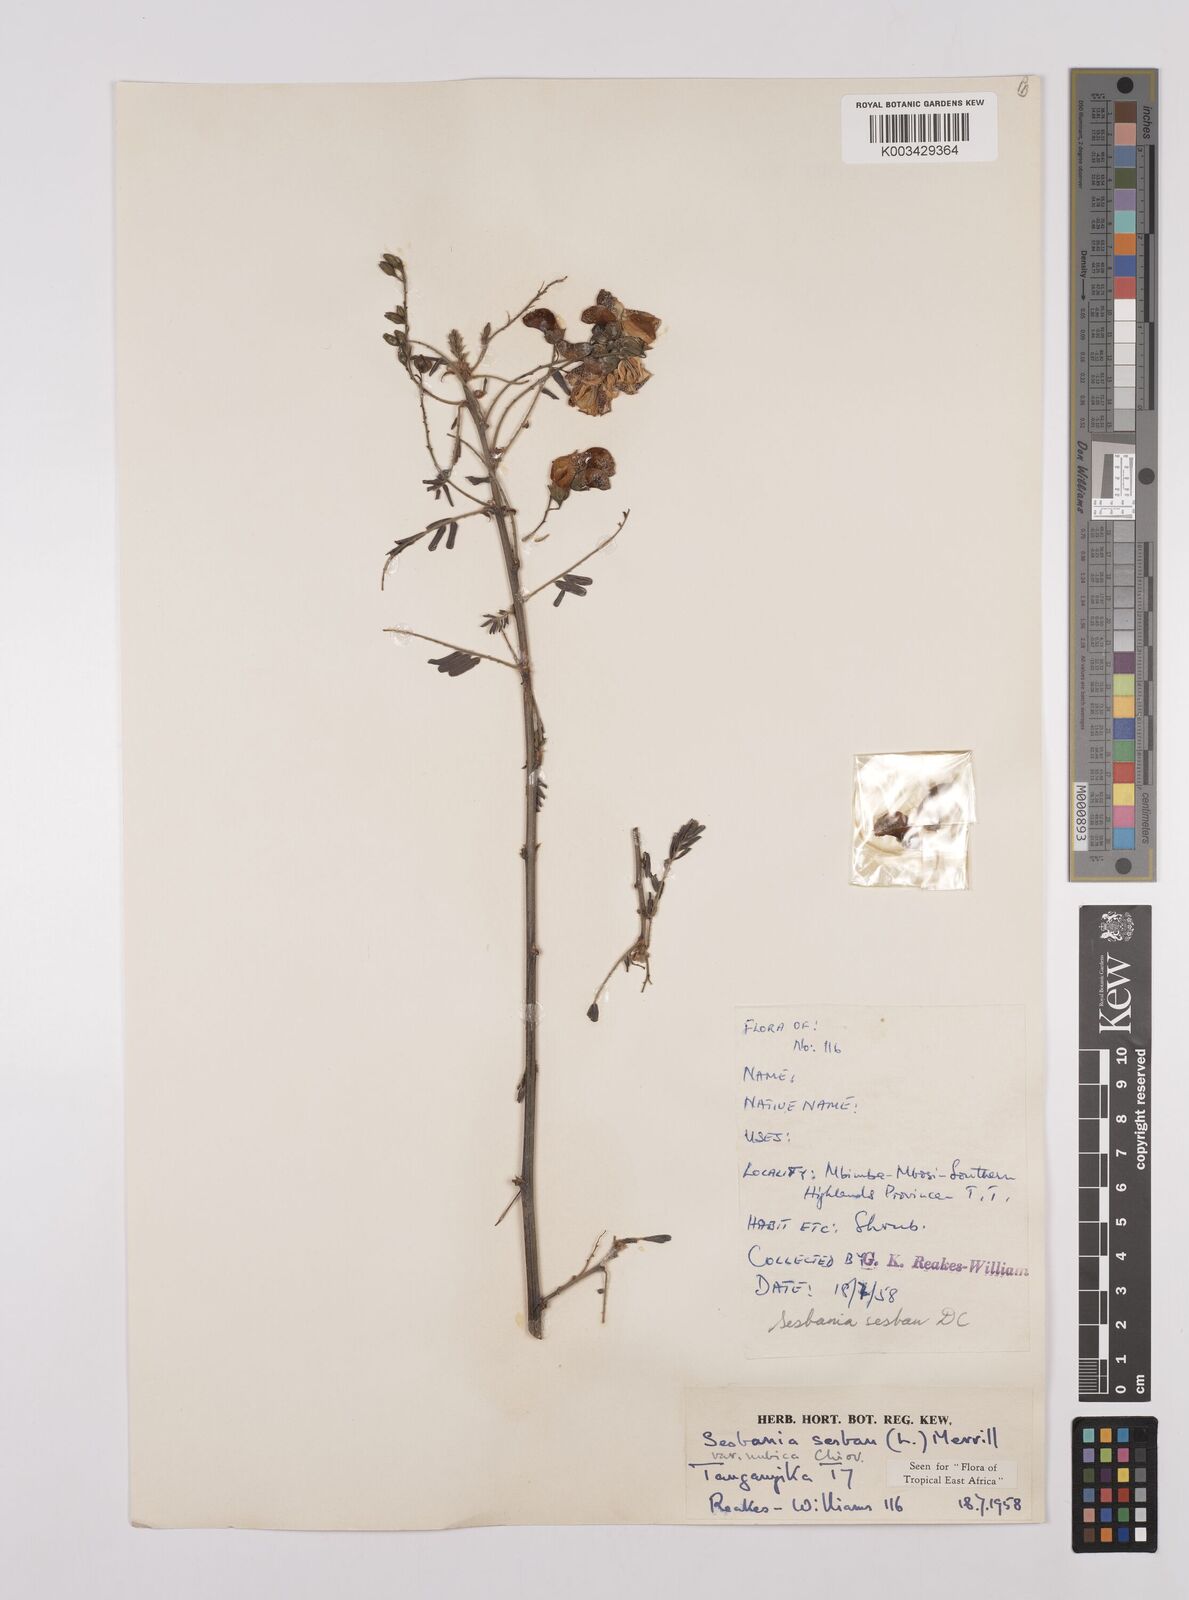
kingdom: Plantae
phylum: Tracheophyta
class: Magnoliopsida
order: Fabales
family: Fabaceae
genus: Sesbania
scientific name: Sesbania sesban
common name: Egyptian sesban
